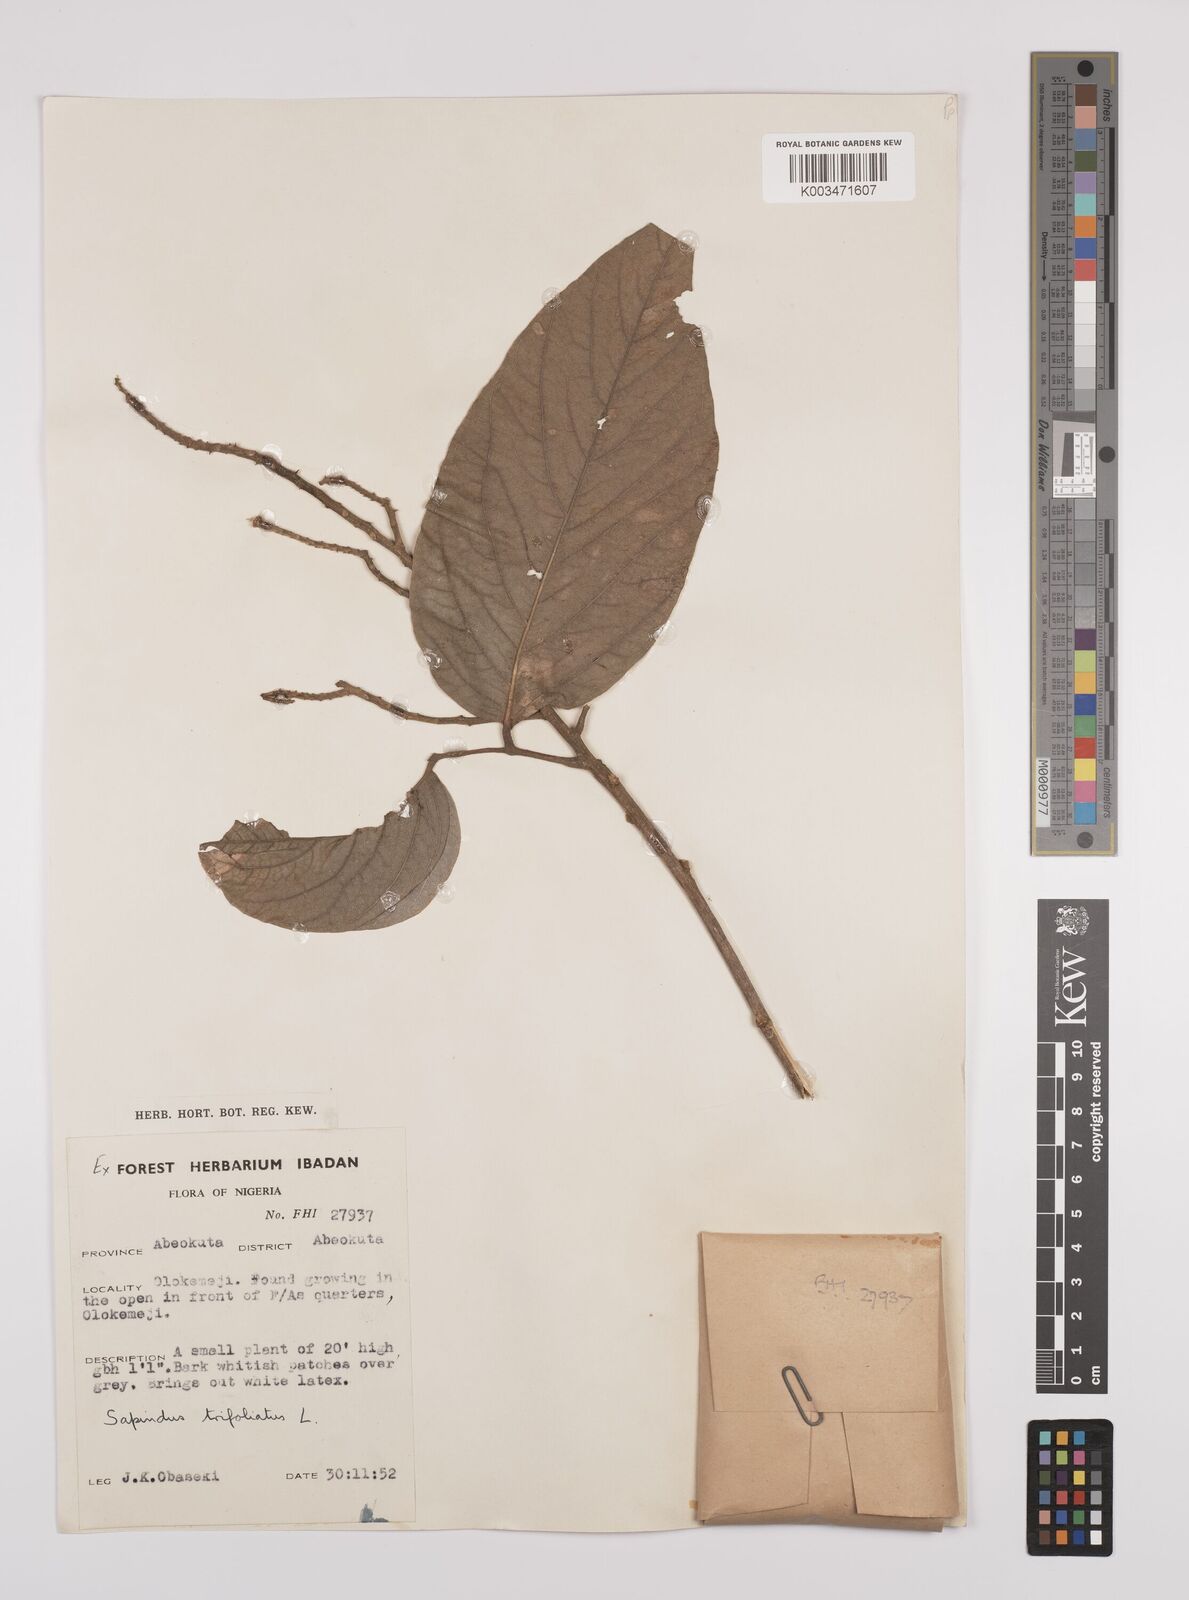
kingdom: Plantae
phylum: Tracheophyta
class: Magnoliopsida
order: Sapindales
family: Sapindaceae
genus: Sapindus
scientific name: Sapindus
